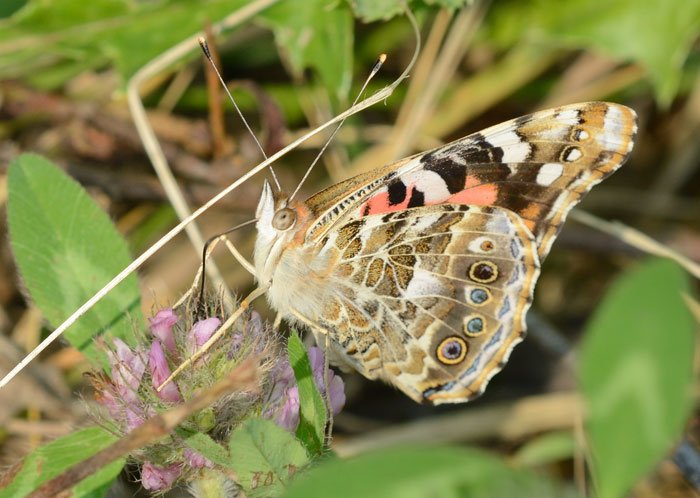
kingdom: Animalia
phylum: Arthropoda
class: Insecta
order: Lepidoptera
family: Nymphalidae
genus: Vanessa
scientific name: Vanessa cardui
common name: Painted Lady
